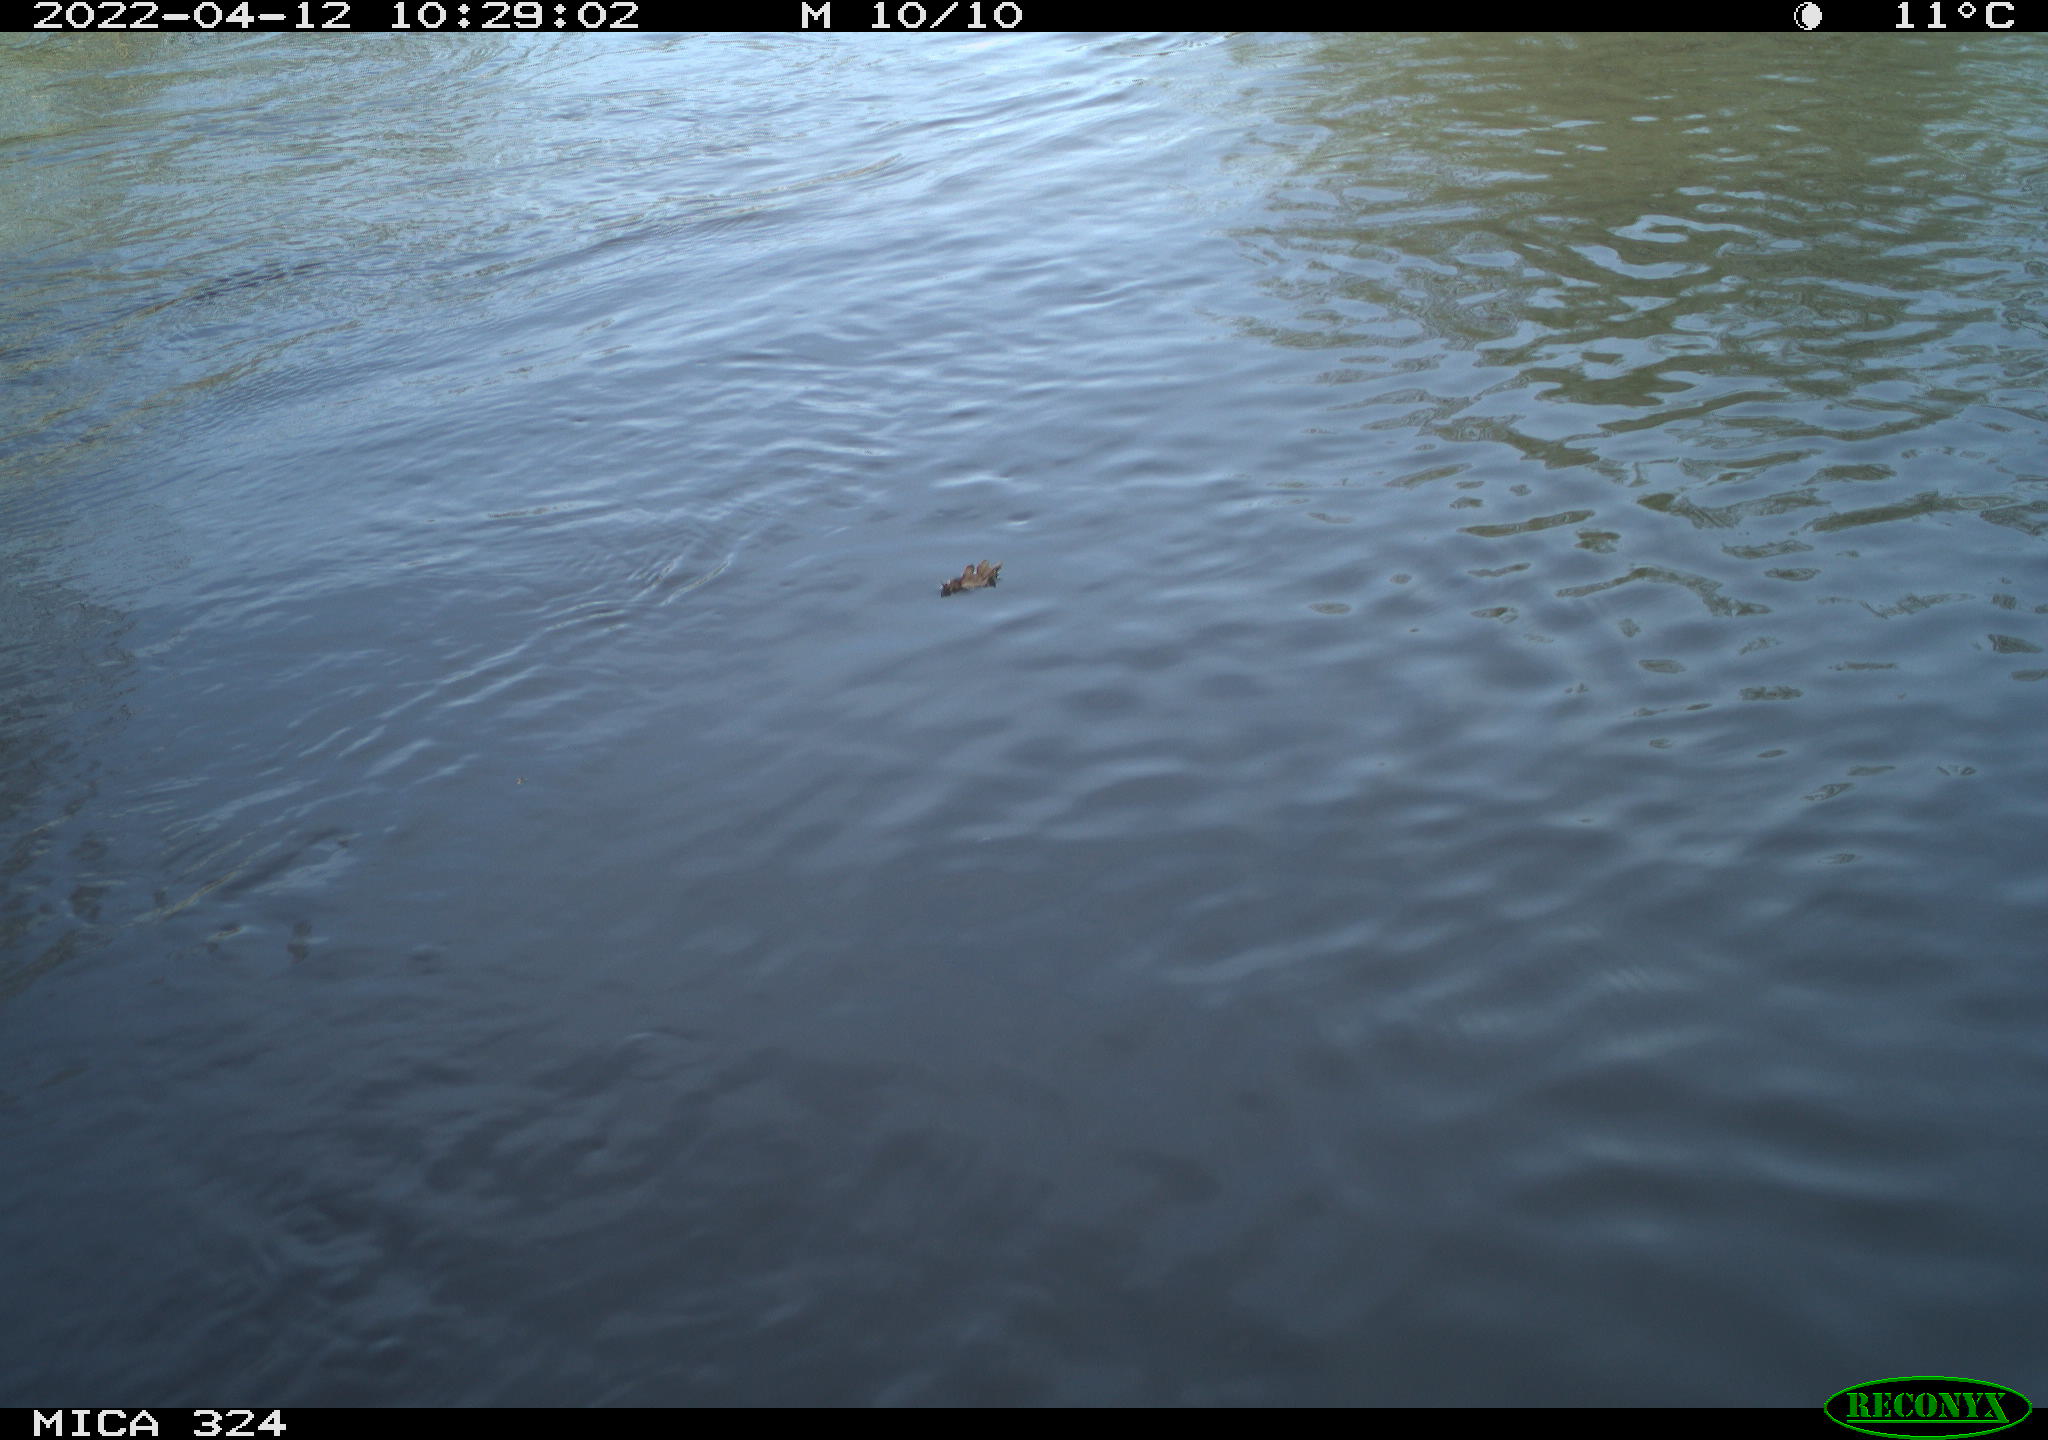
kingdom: Animalia
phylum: Chordata
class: Aves
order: Gruiformes
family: Rallidae
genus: Gallinula
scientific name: Gallinula chloropus
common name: Common moorhen
